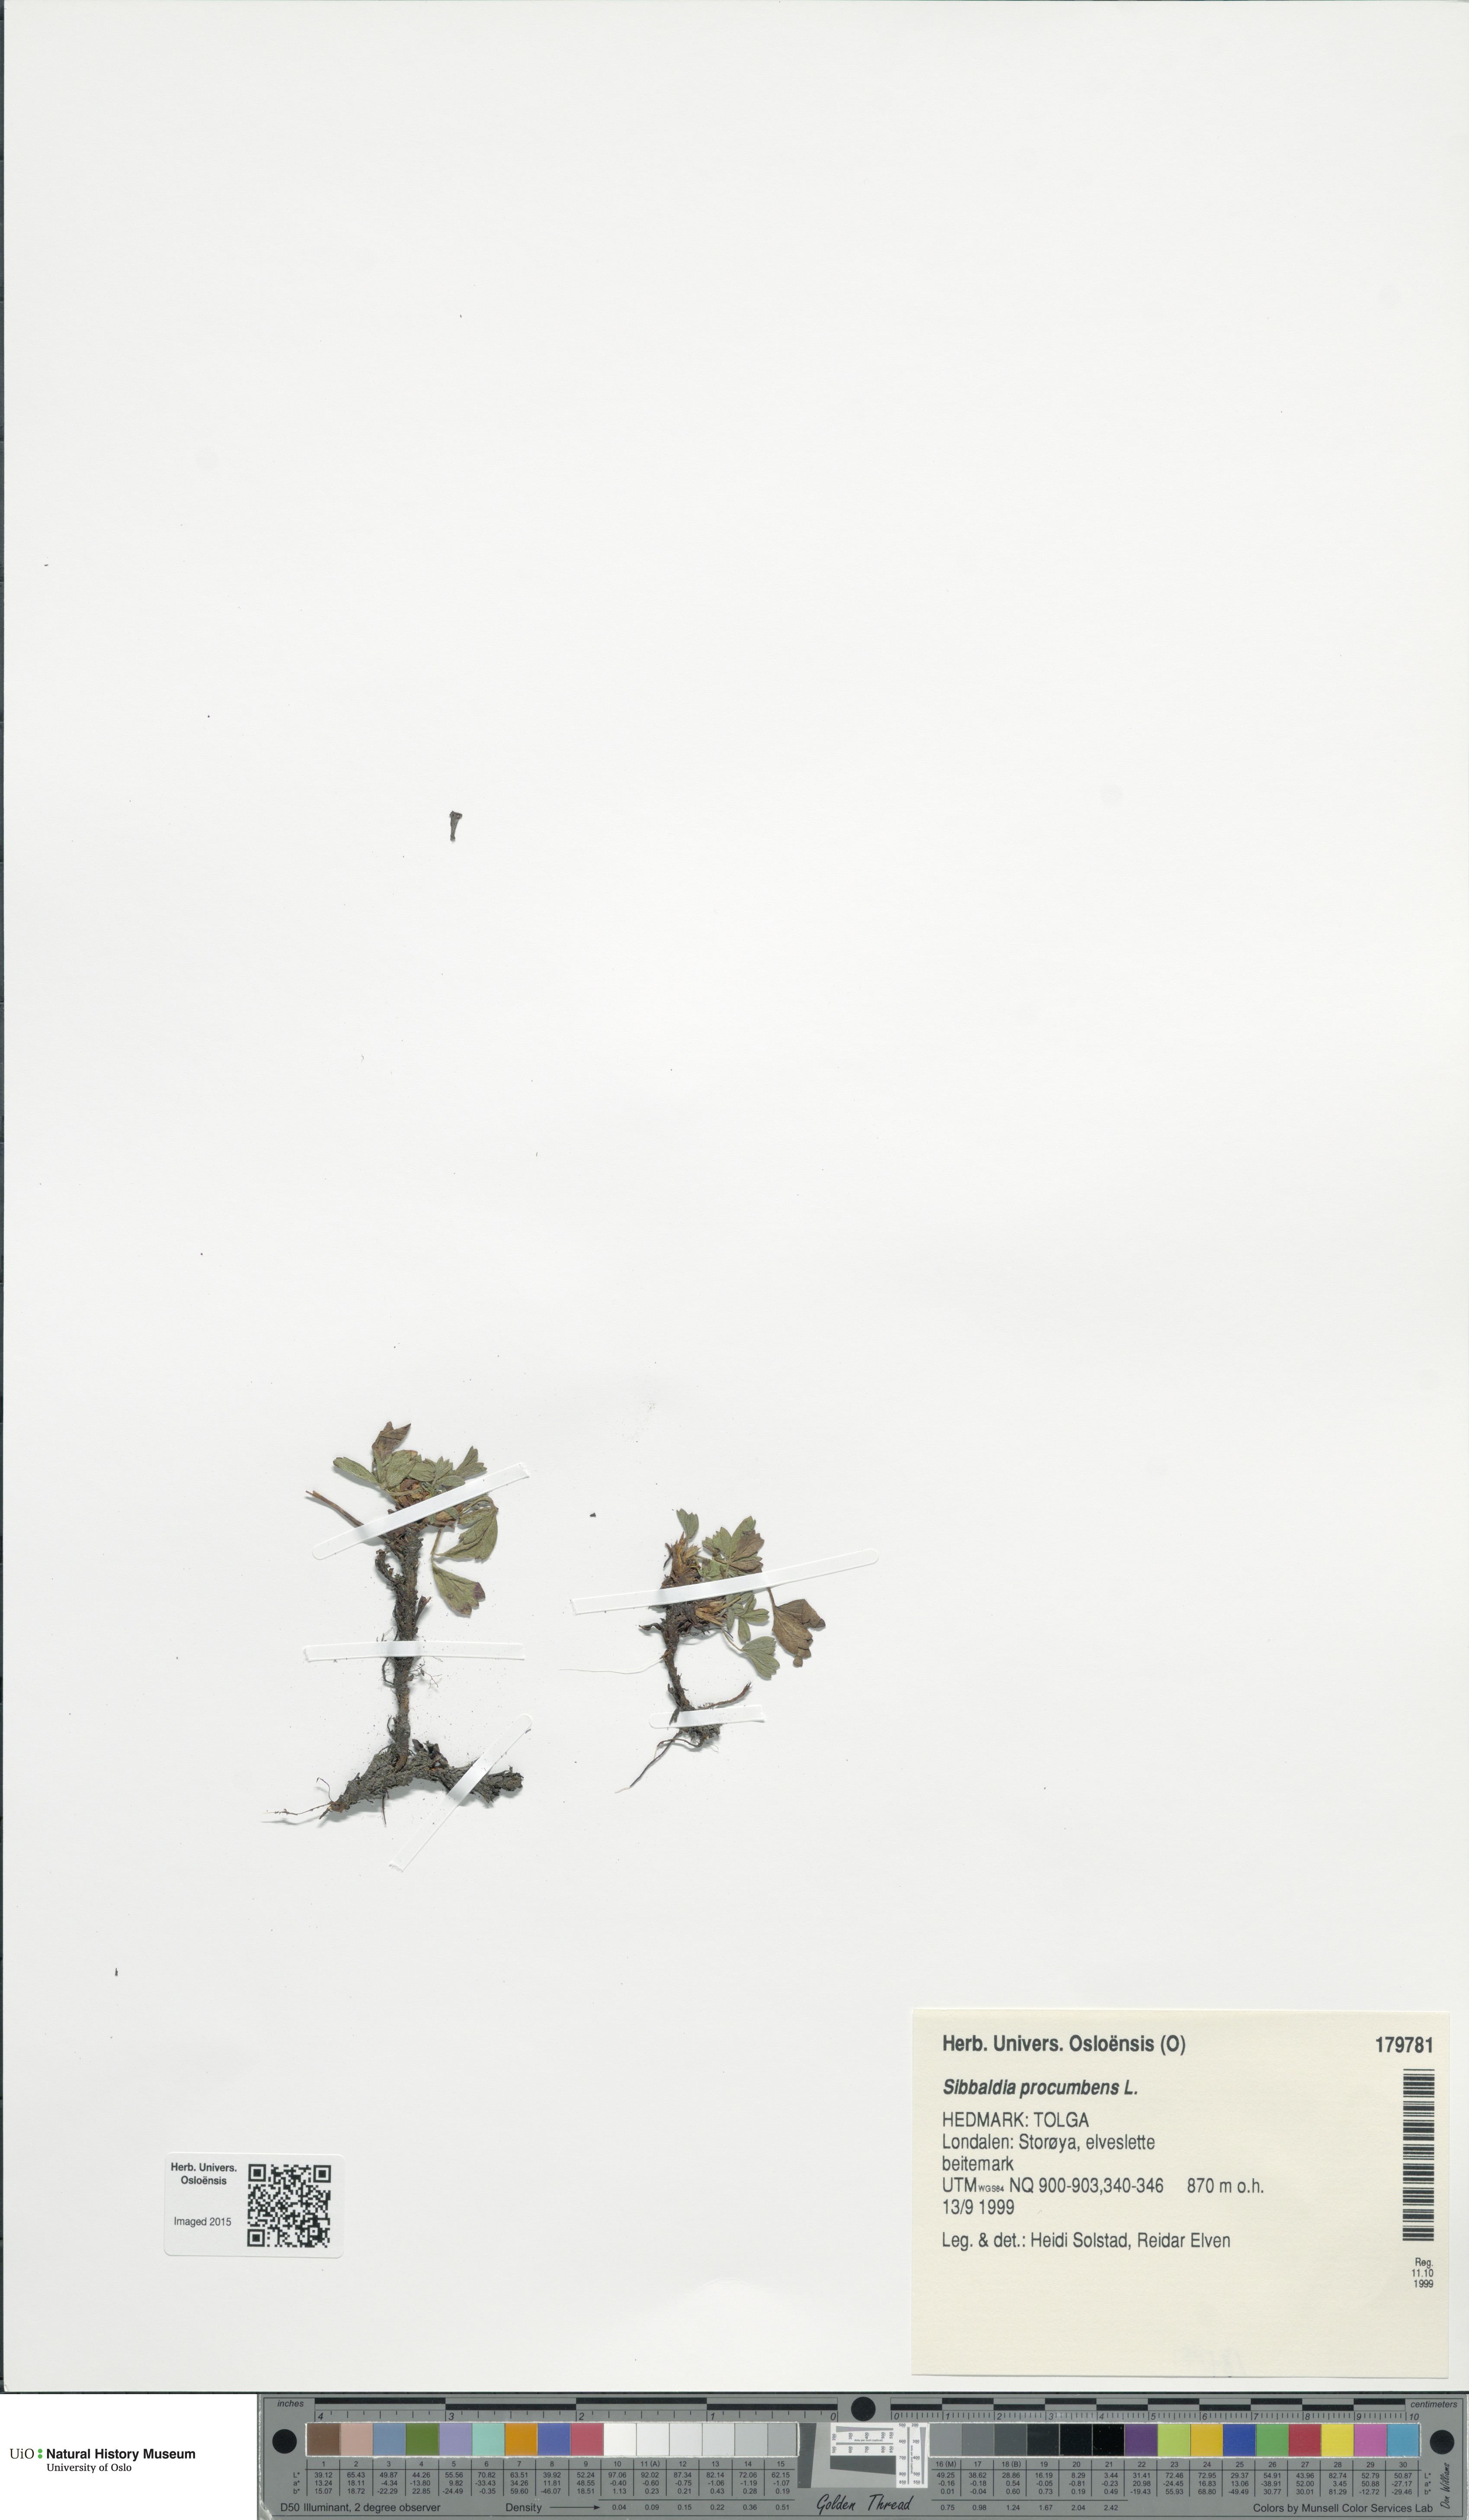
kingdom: Plantae
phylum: Tracheophyta
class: Magnoliopsida
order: Rosales
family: Rosaceae
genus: Sibbaldia
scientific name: Sibbaldia procumbens
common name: Creeping sibbaldia
